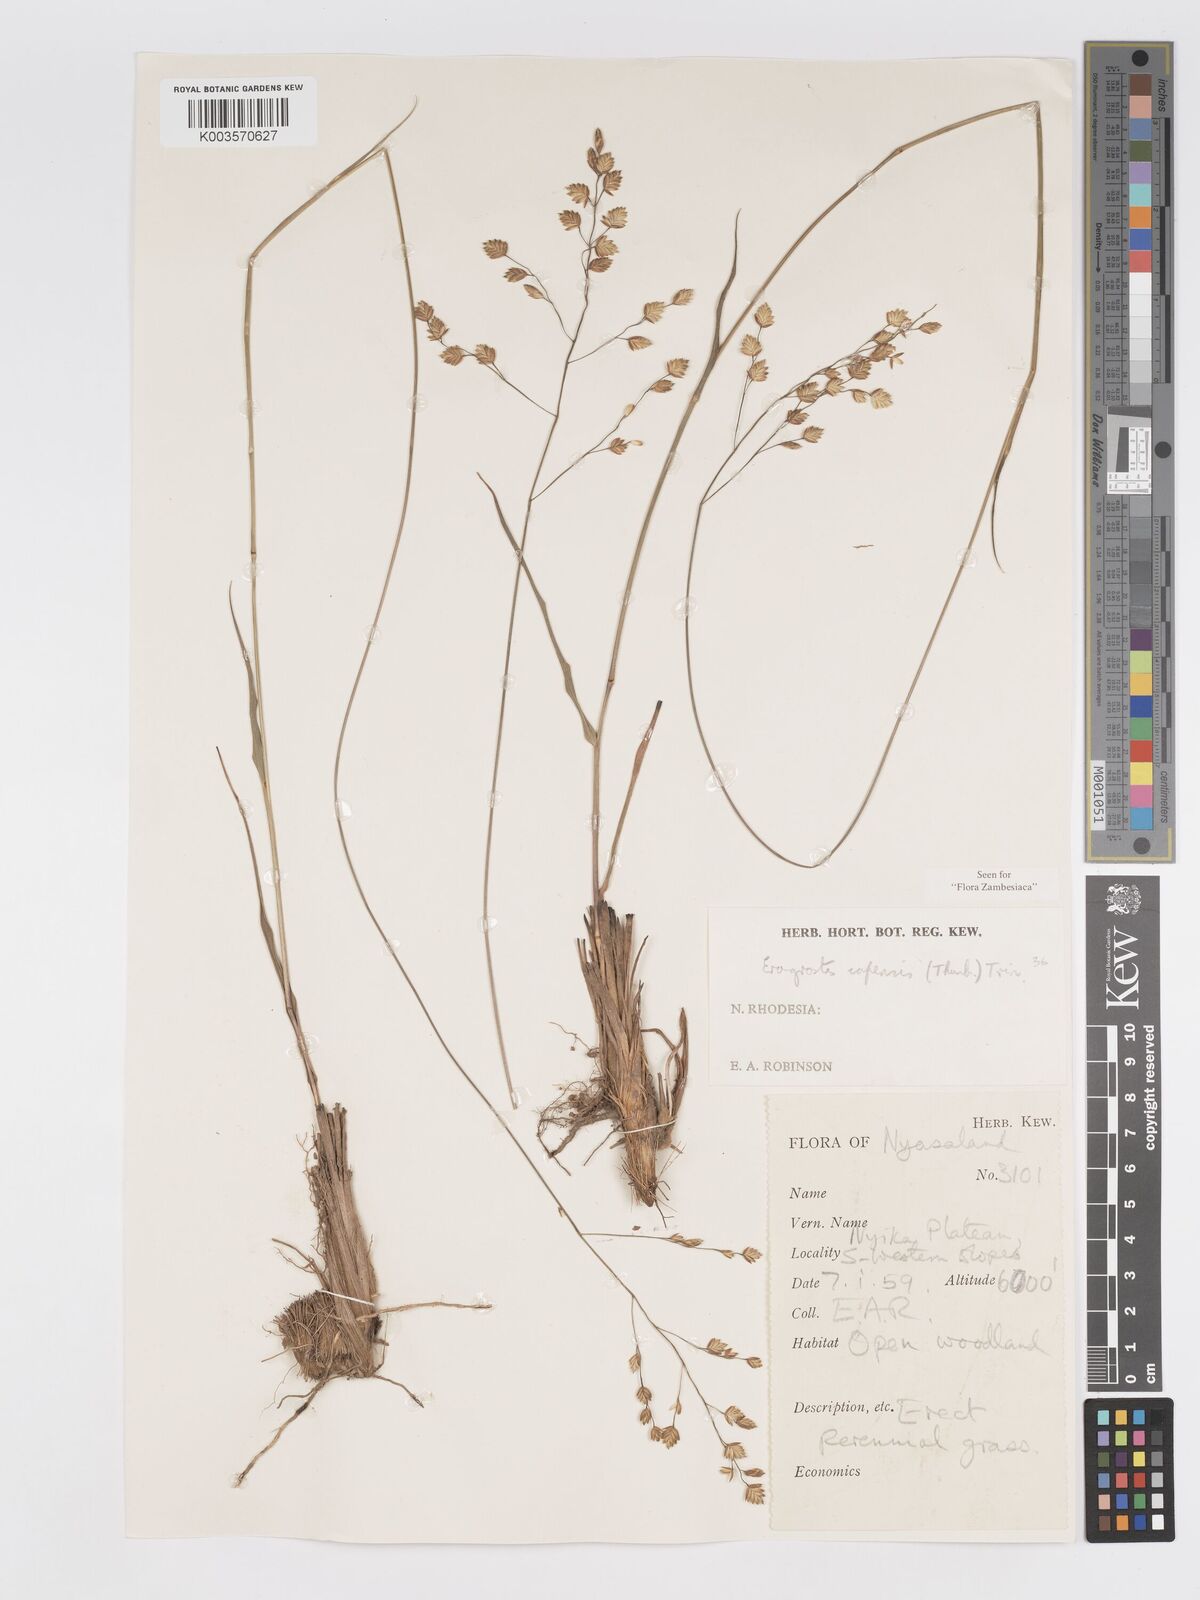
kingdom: Plantae
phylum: Tracheophyta
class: Liliopsida
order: Poales
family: Poaceae
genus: Eragrostis
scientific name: Eragrostis capensis
